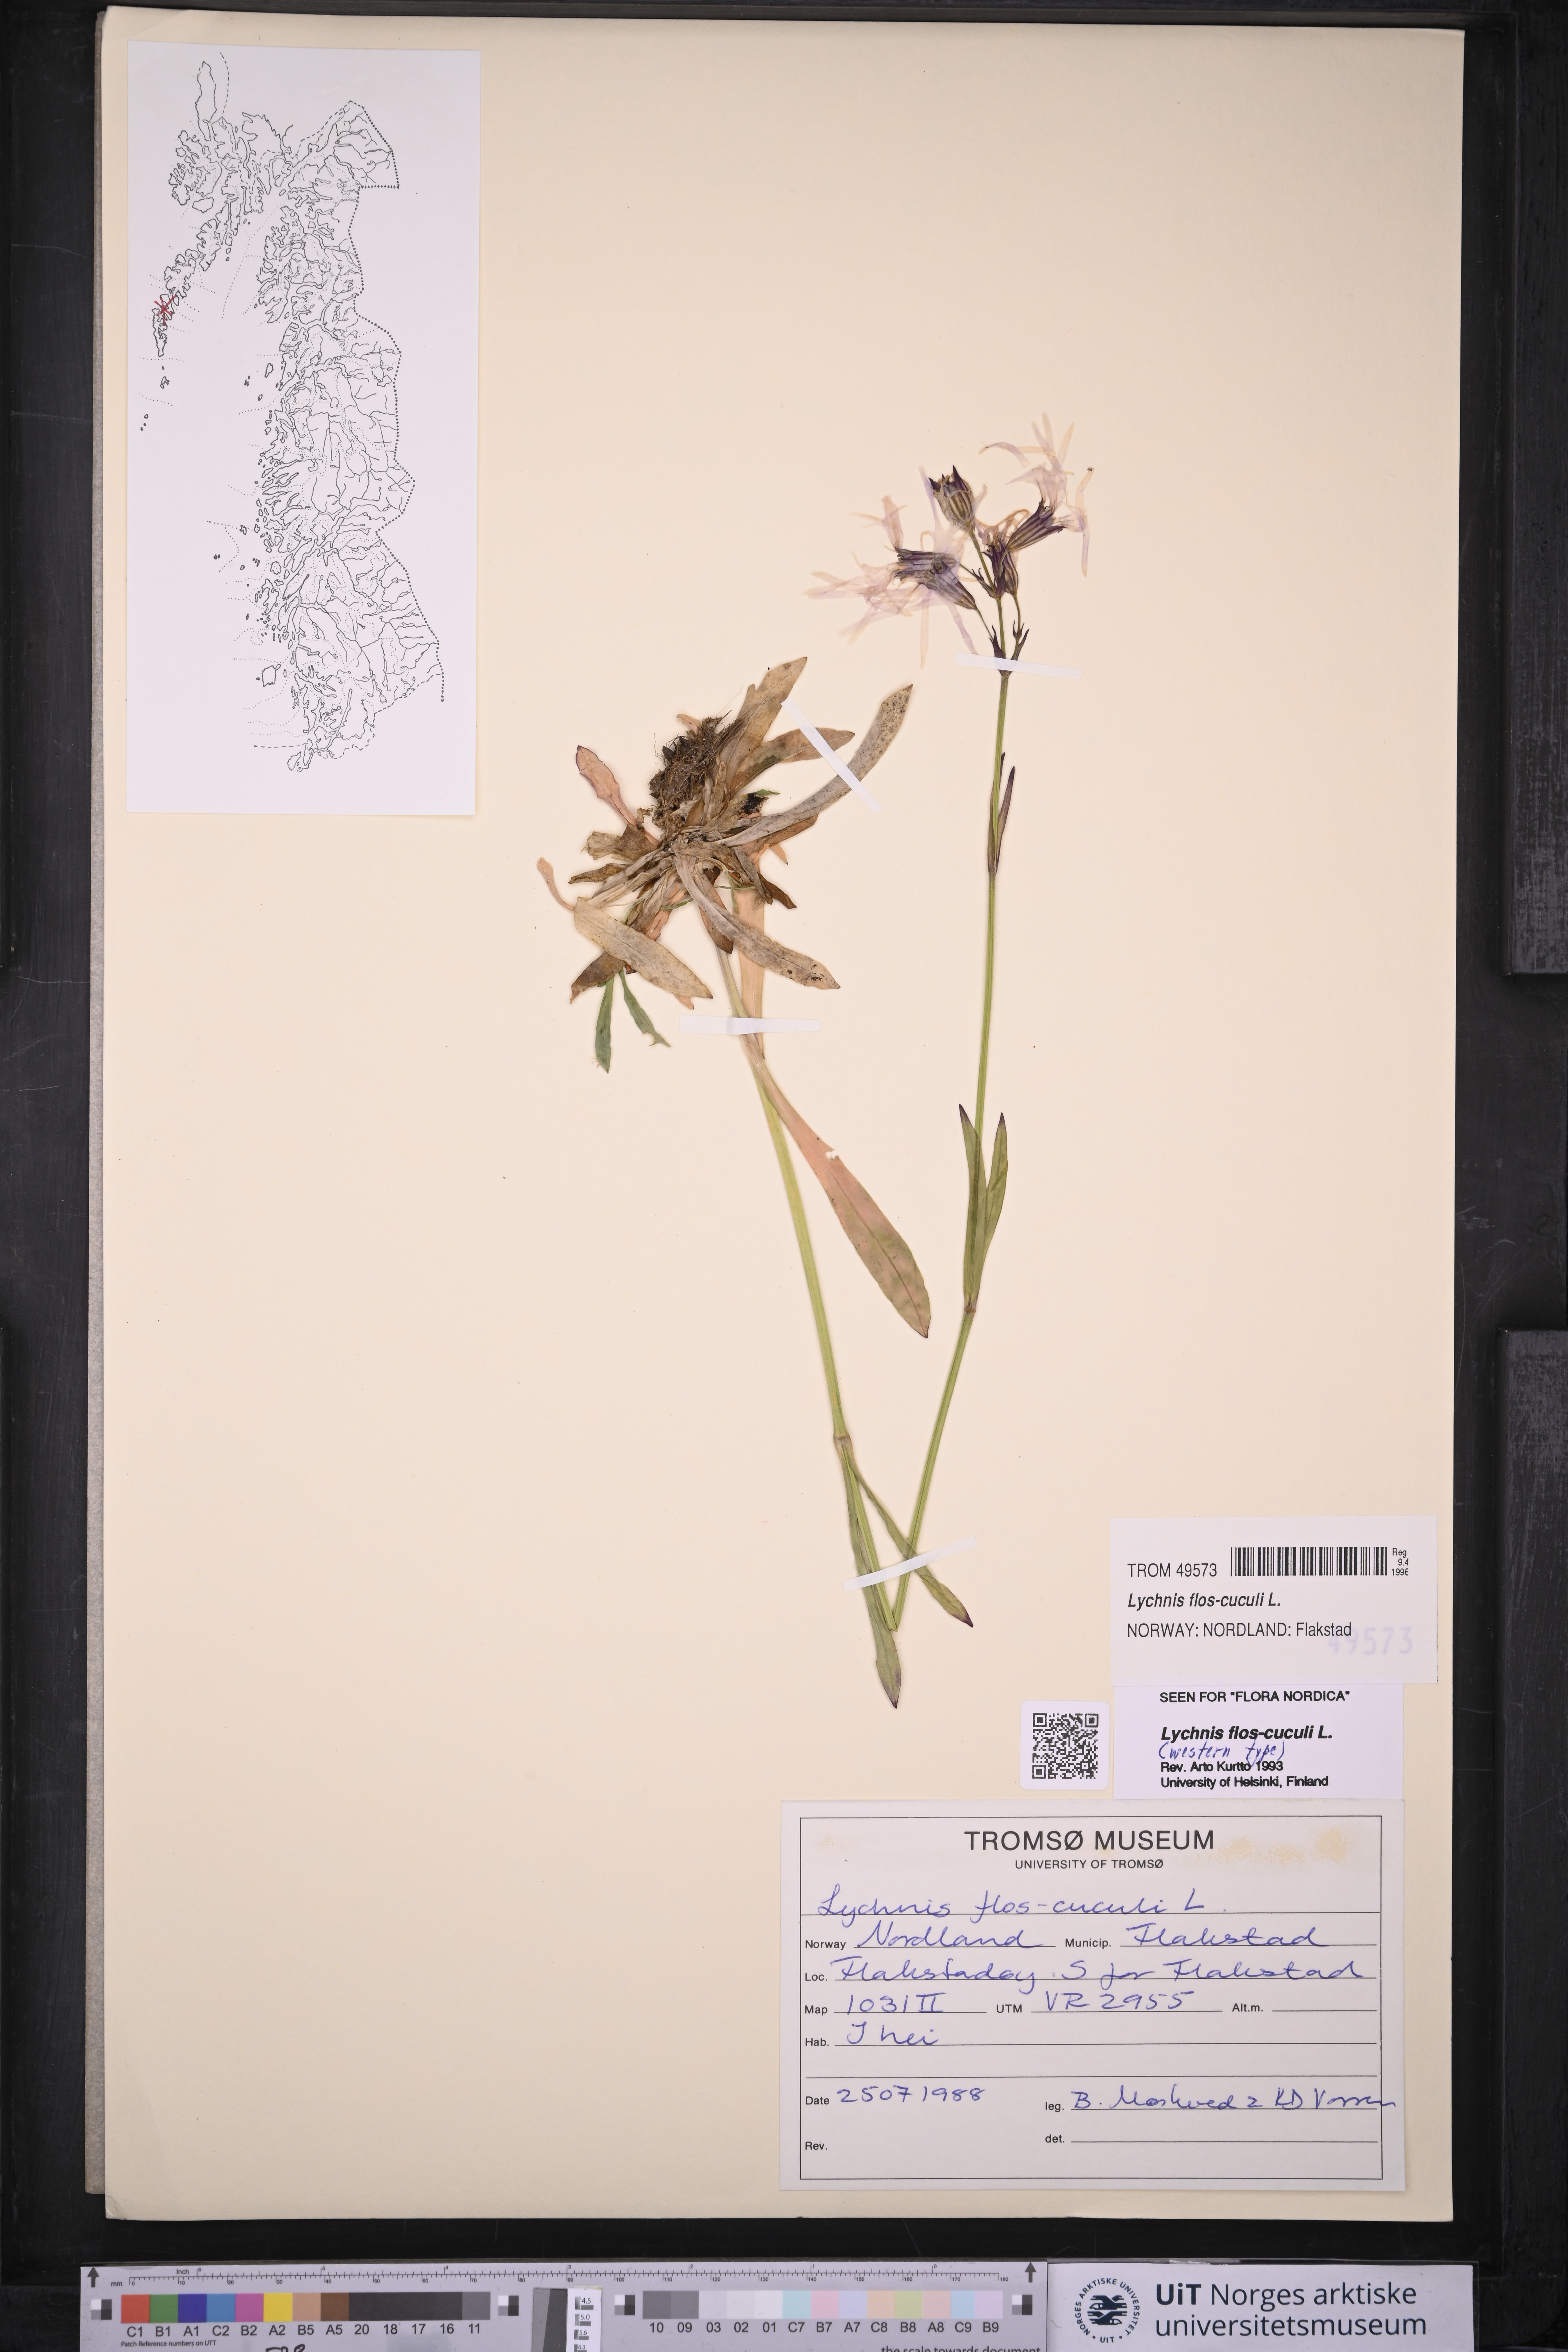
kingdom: Plantae
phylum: Tracheophyta
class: Magnoliopsida
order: Caryophyllales
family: Caryophyllaceae
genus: Silene
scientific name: Silene flos-cuculi
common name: Ragged-robin
